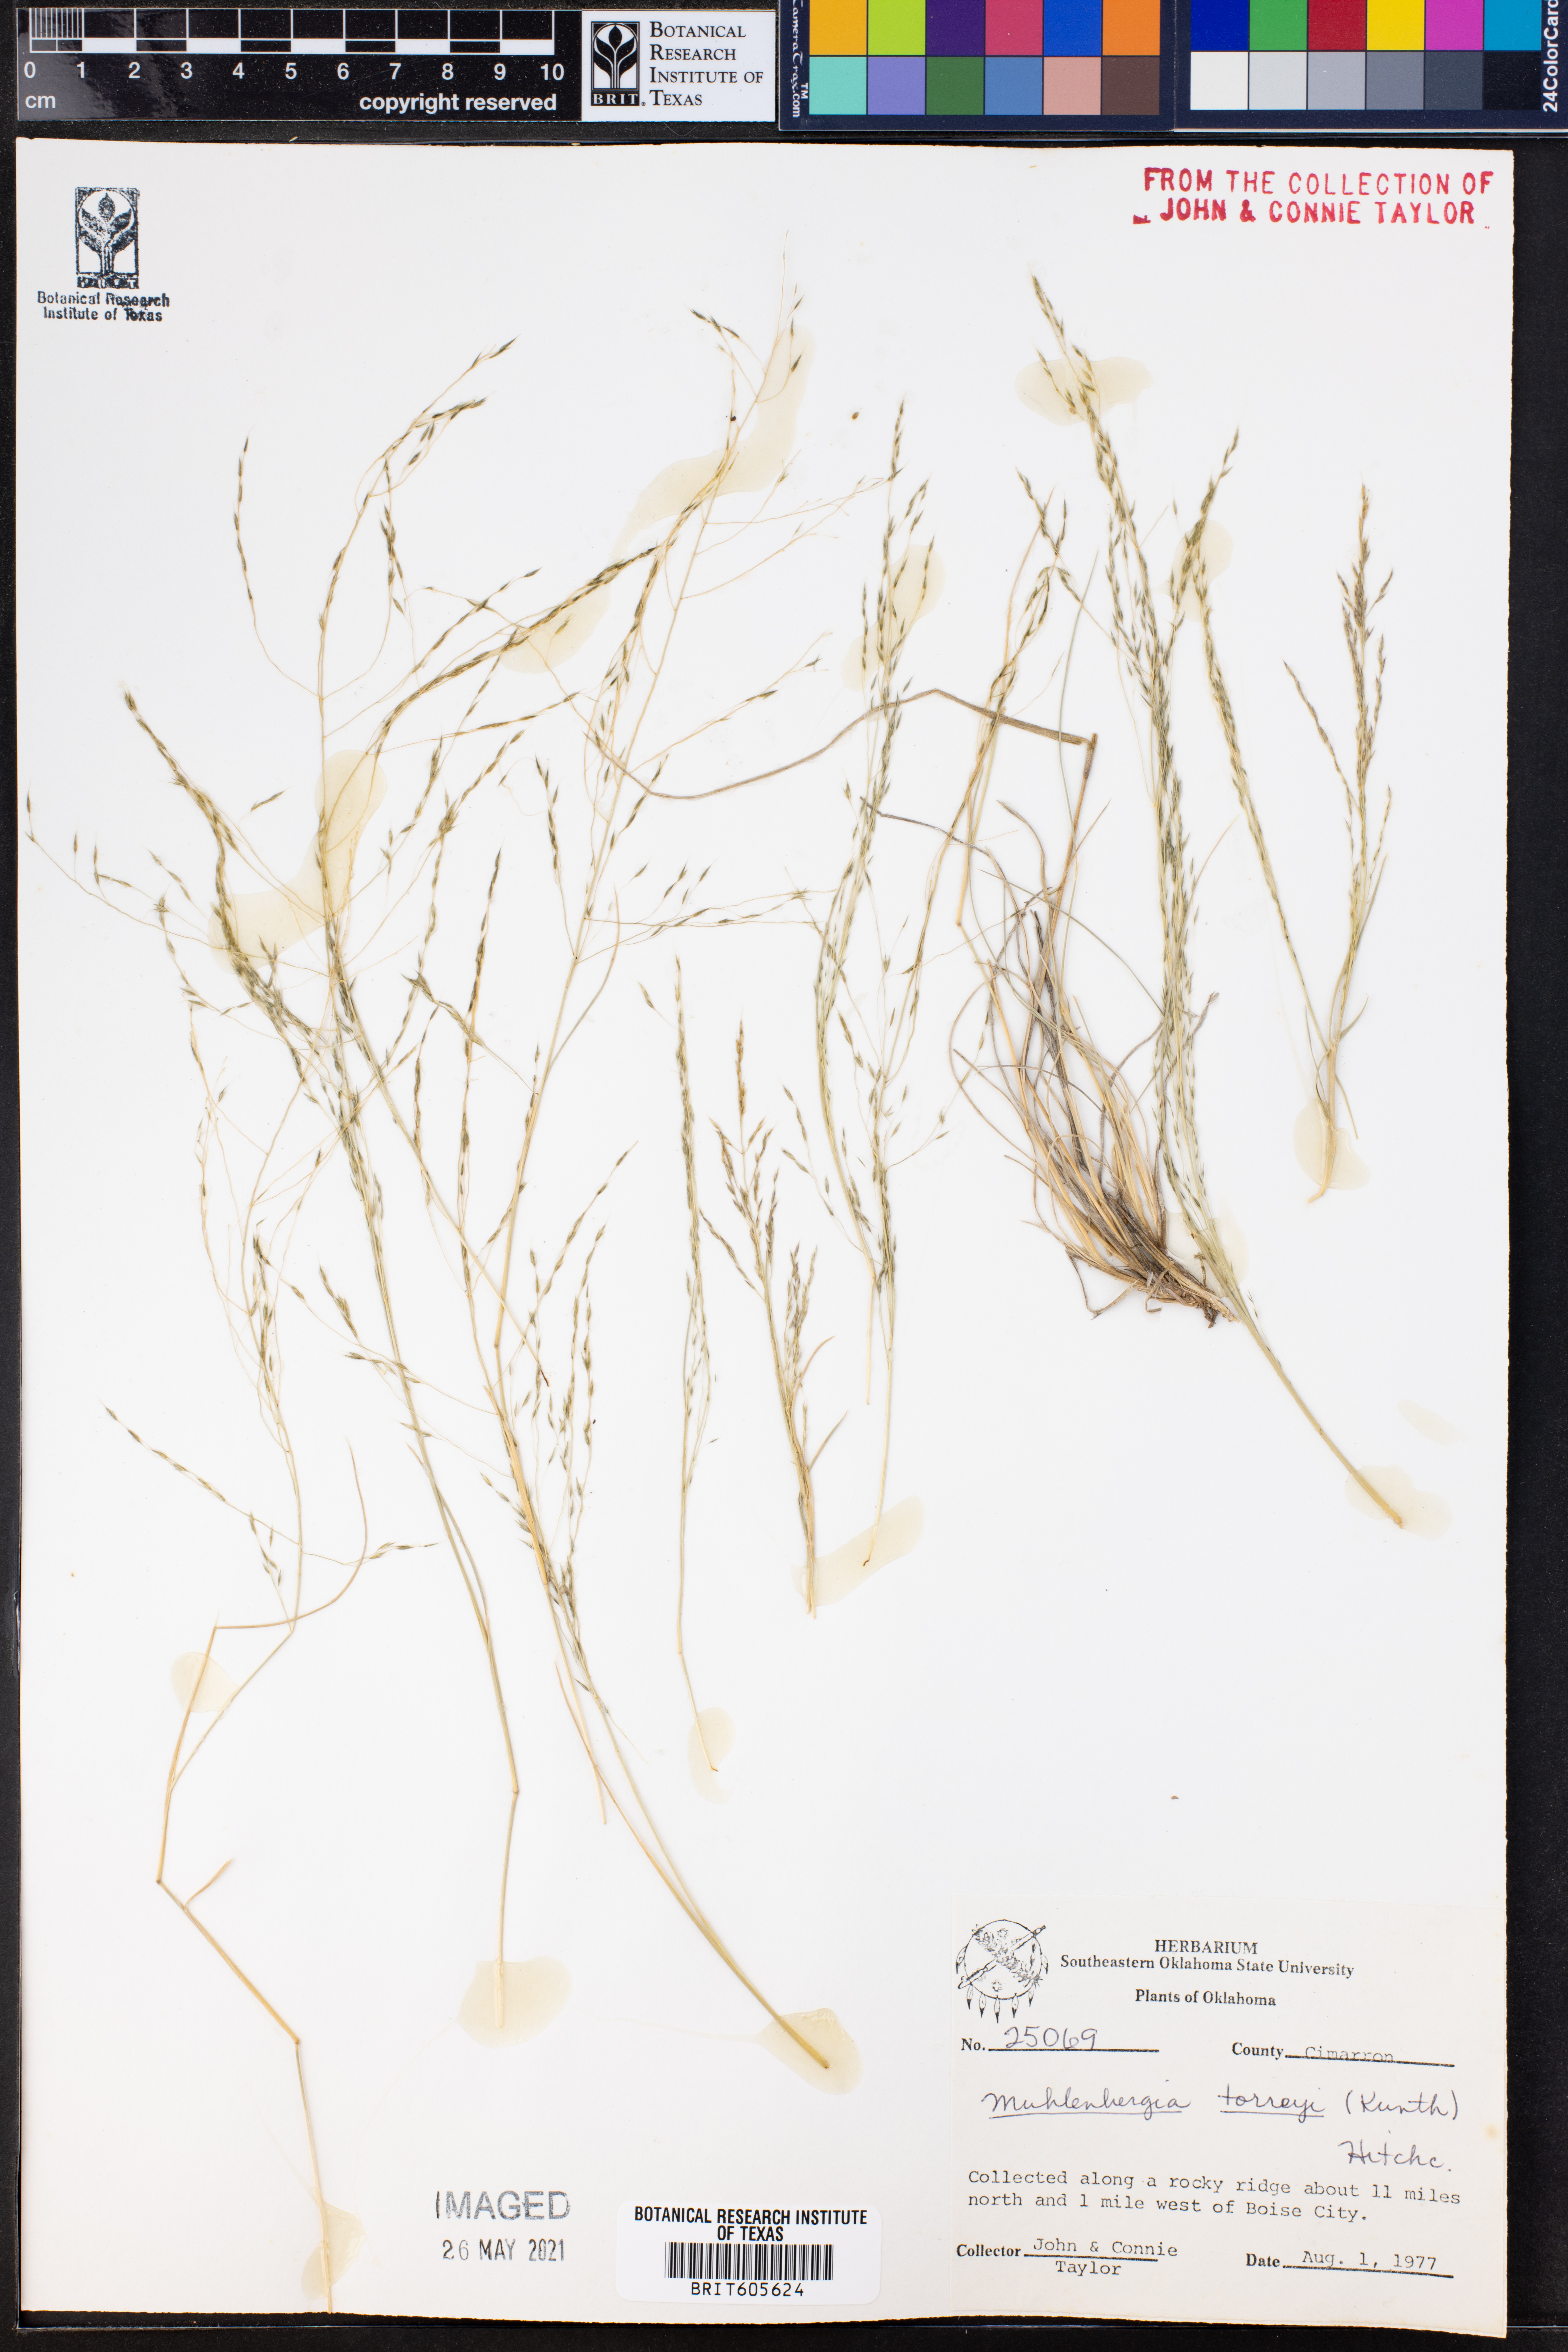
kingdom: Plantae
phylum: Tracheophyta
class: Liliopsida
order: Poales
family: Poaceae
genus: Muhlenbergia
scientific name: Muhlenbergia torreyi
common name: Ring grass
